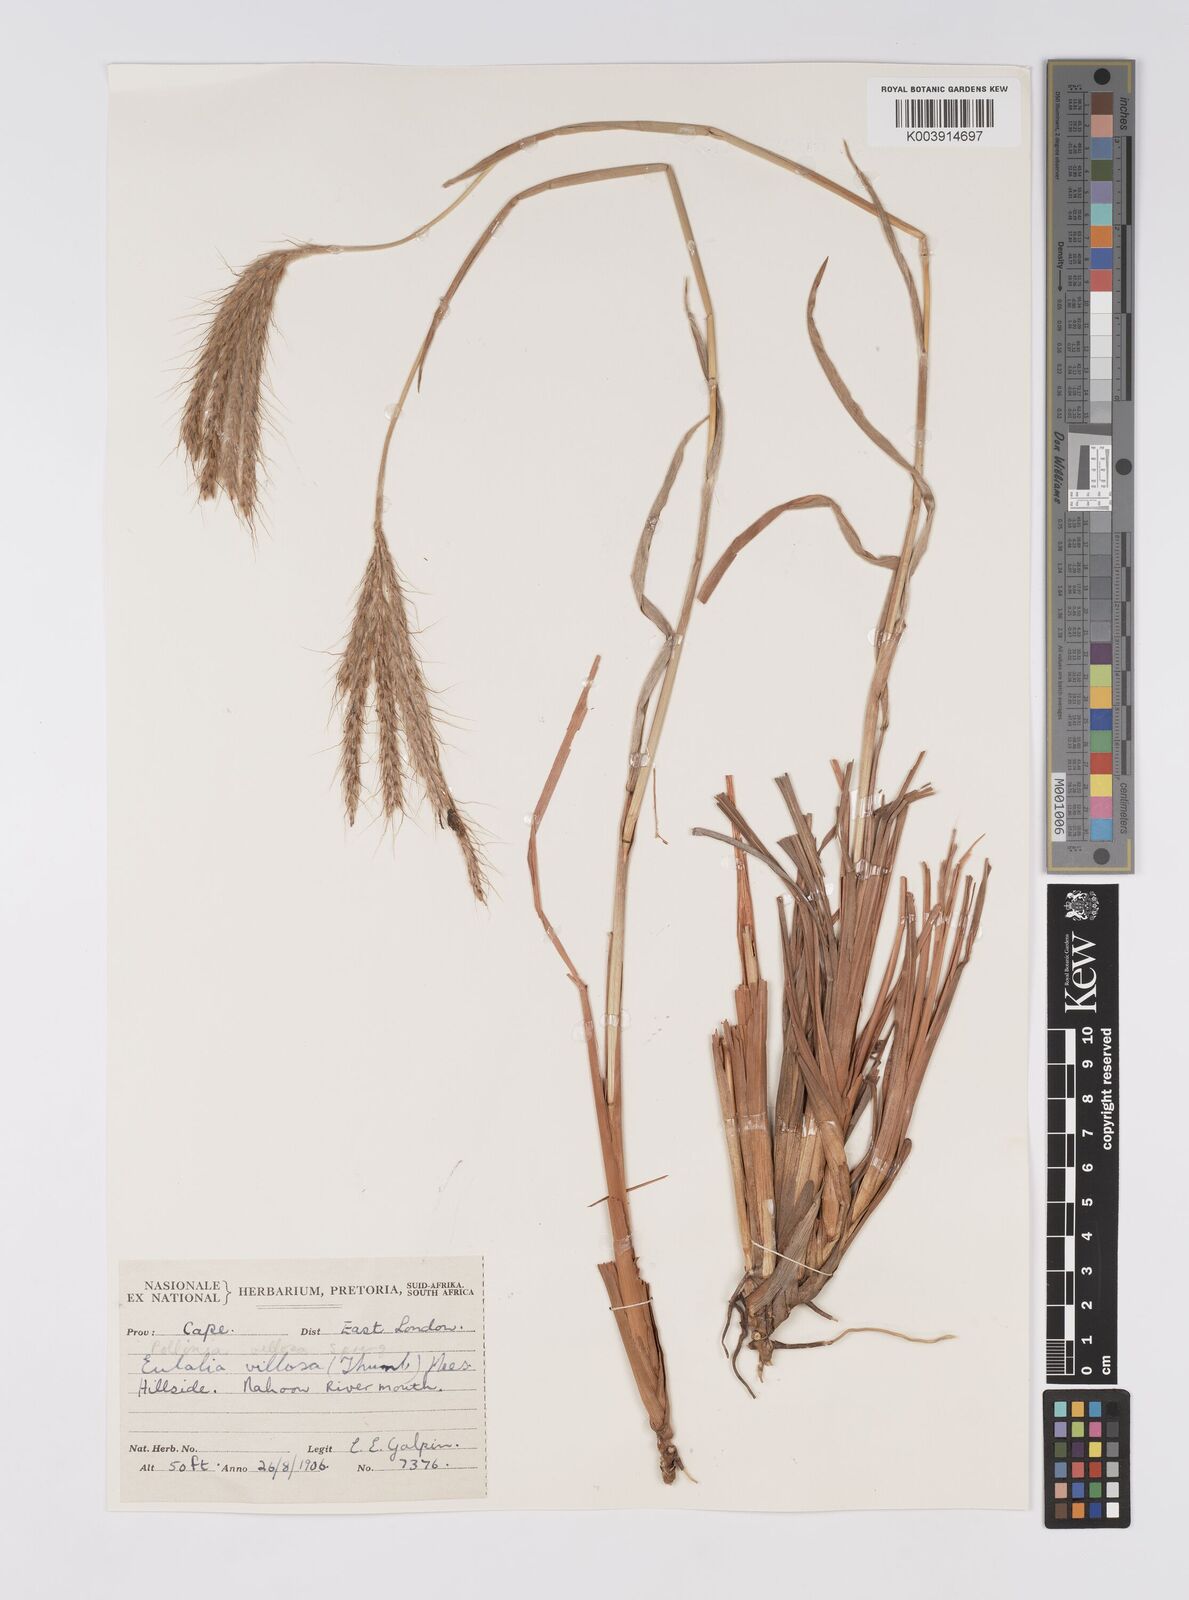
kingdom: Plantae
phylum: Tracheophyta
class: Liliopsida
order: Poales
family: Poaceae
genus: Eulalia
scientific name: Eulalia villosa
